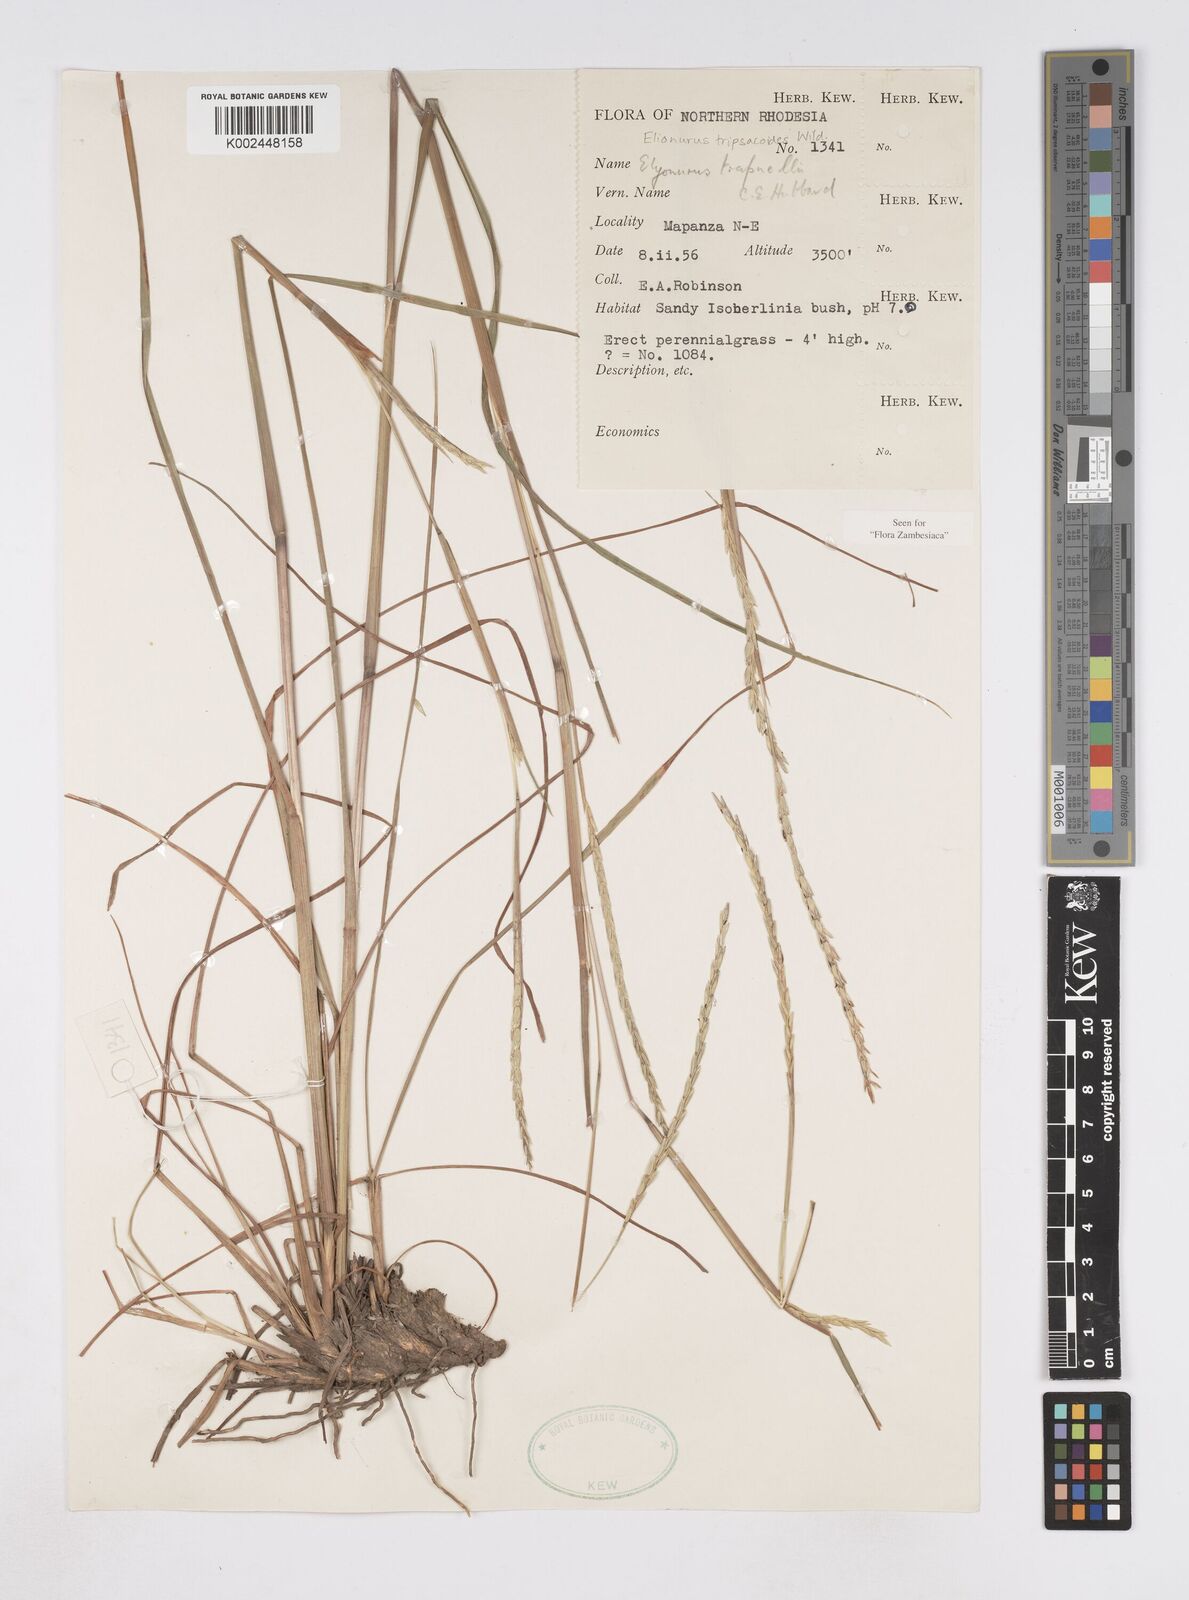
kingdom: Plantae
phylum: Tracheophyta
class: Liliopsida
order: Poales
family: Poaceae
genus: Elionurus
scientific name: Elionurus tripsacoides
